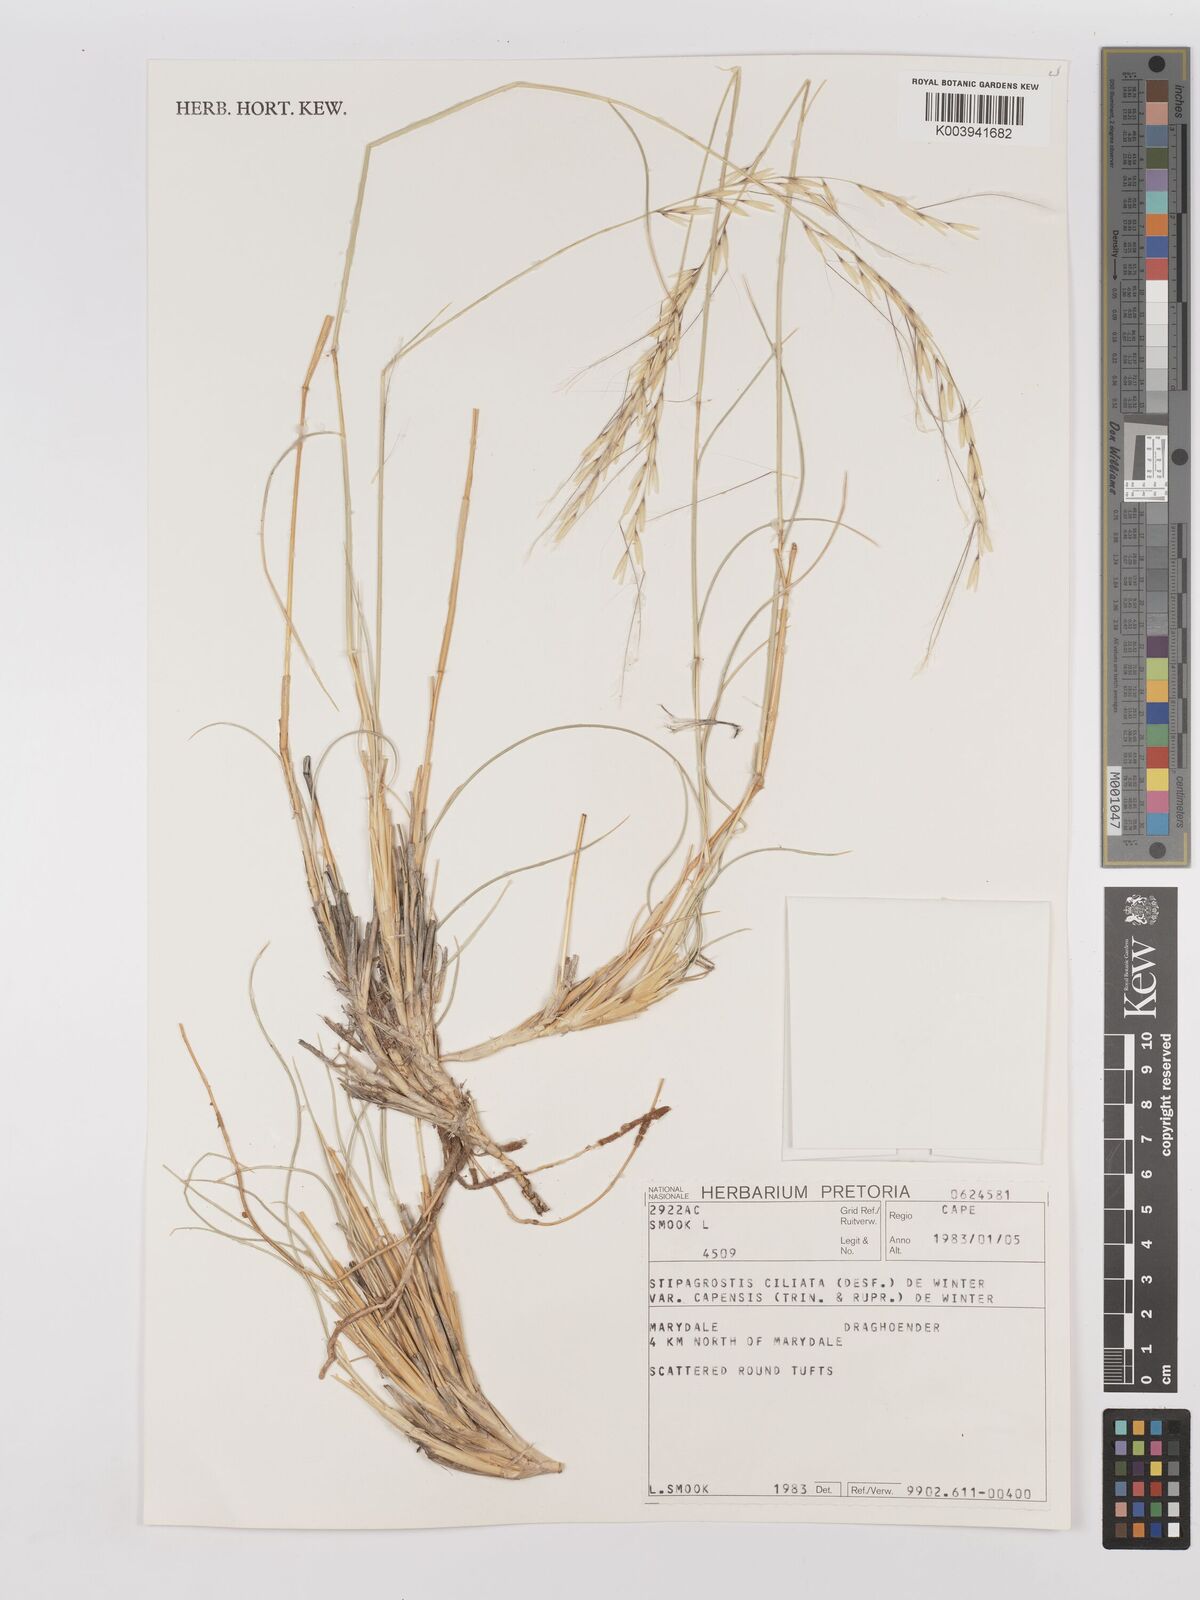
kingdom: Plantae
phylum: Tracheophyta
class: Liliopsida
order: Poales
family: Poaceae
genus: Stipagrostis
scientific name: Stipagrostis ciliata
